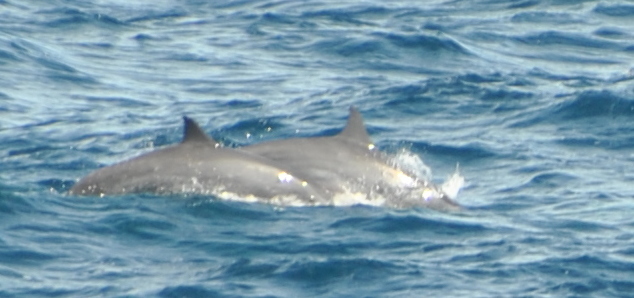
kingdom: Animalia
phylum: Chordata
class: Mammalia
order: Cetacea
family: Delphinidae
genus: Stenella
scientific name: Stenella longirostris
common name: Spinner Dolphin
